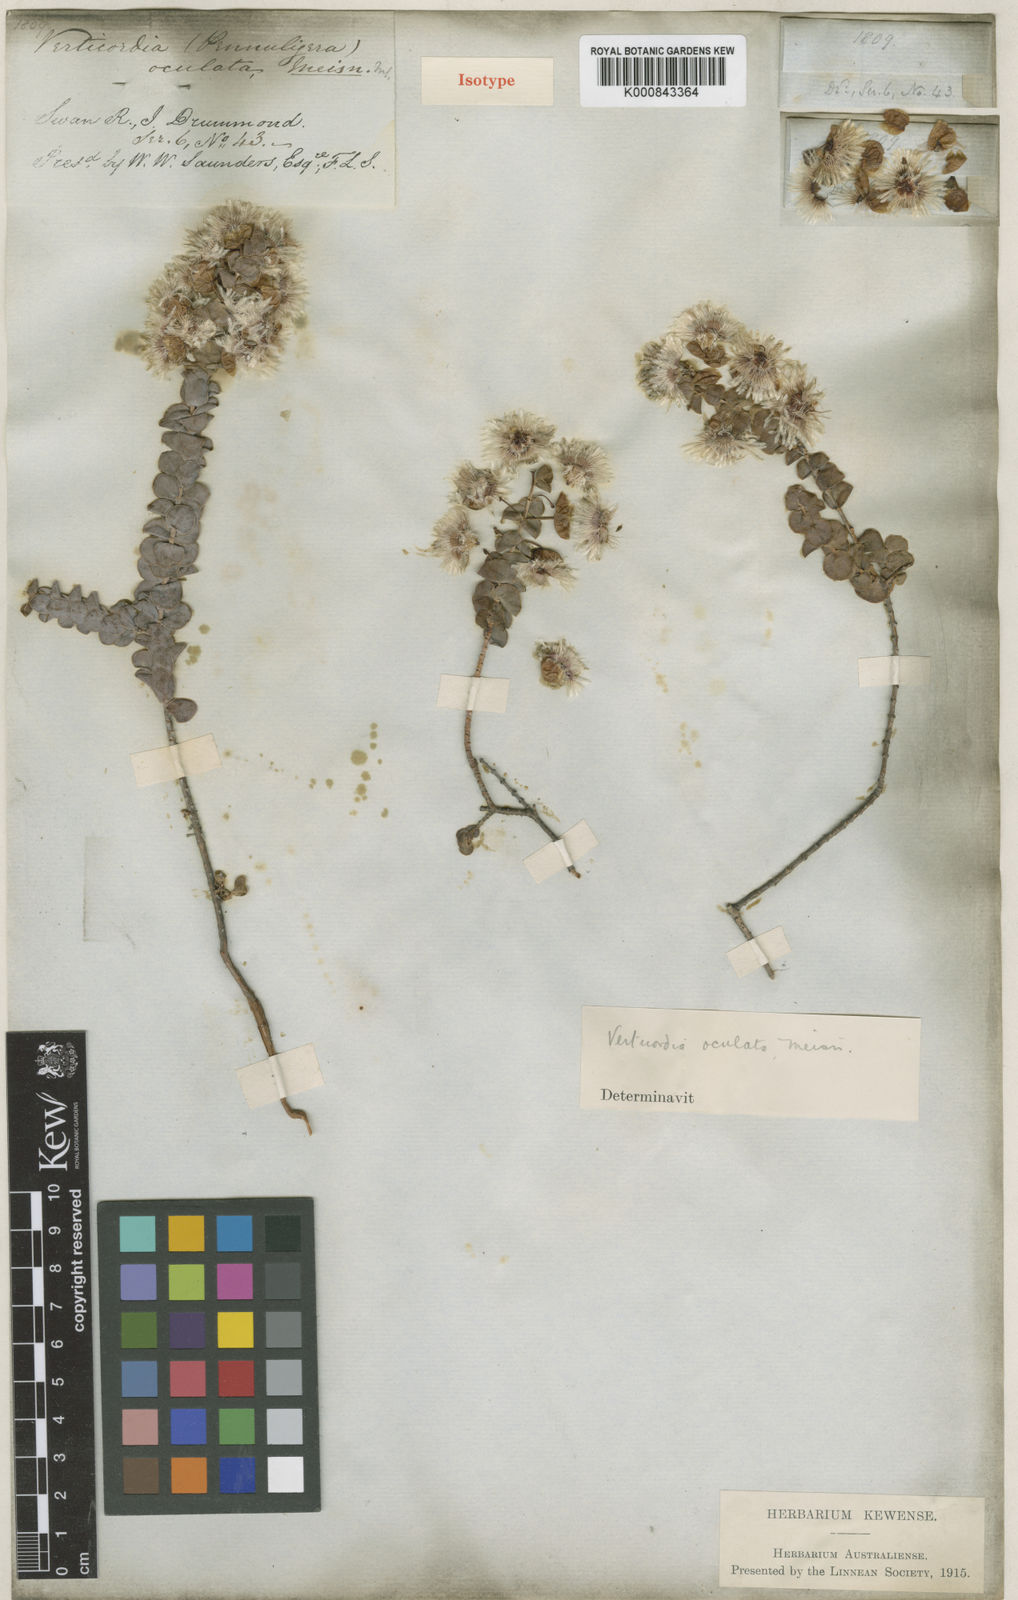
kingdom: Plantae
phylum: Tracheophyta
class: Magnoliopsida
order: Myrtales
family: Myrtaceae
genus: Verticordia
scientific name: Verticordia oculata
